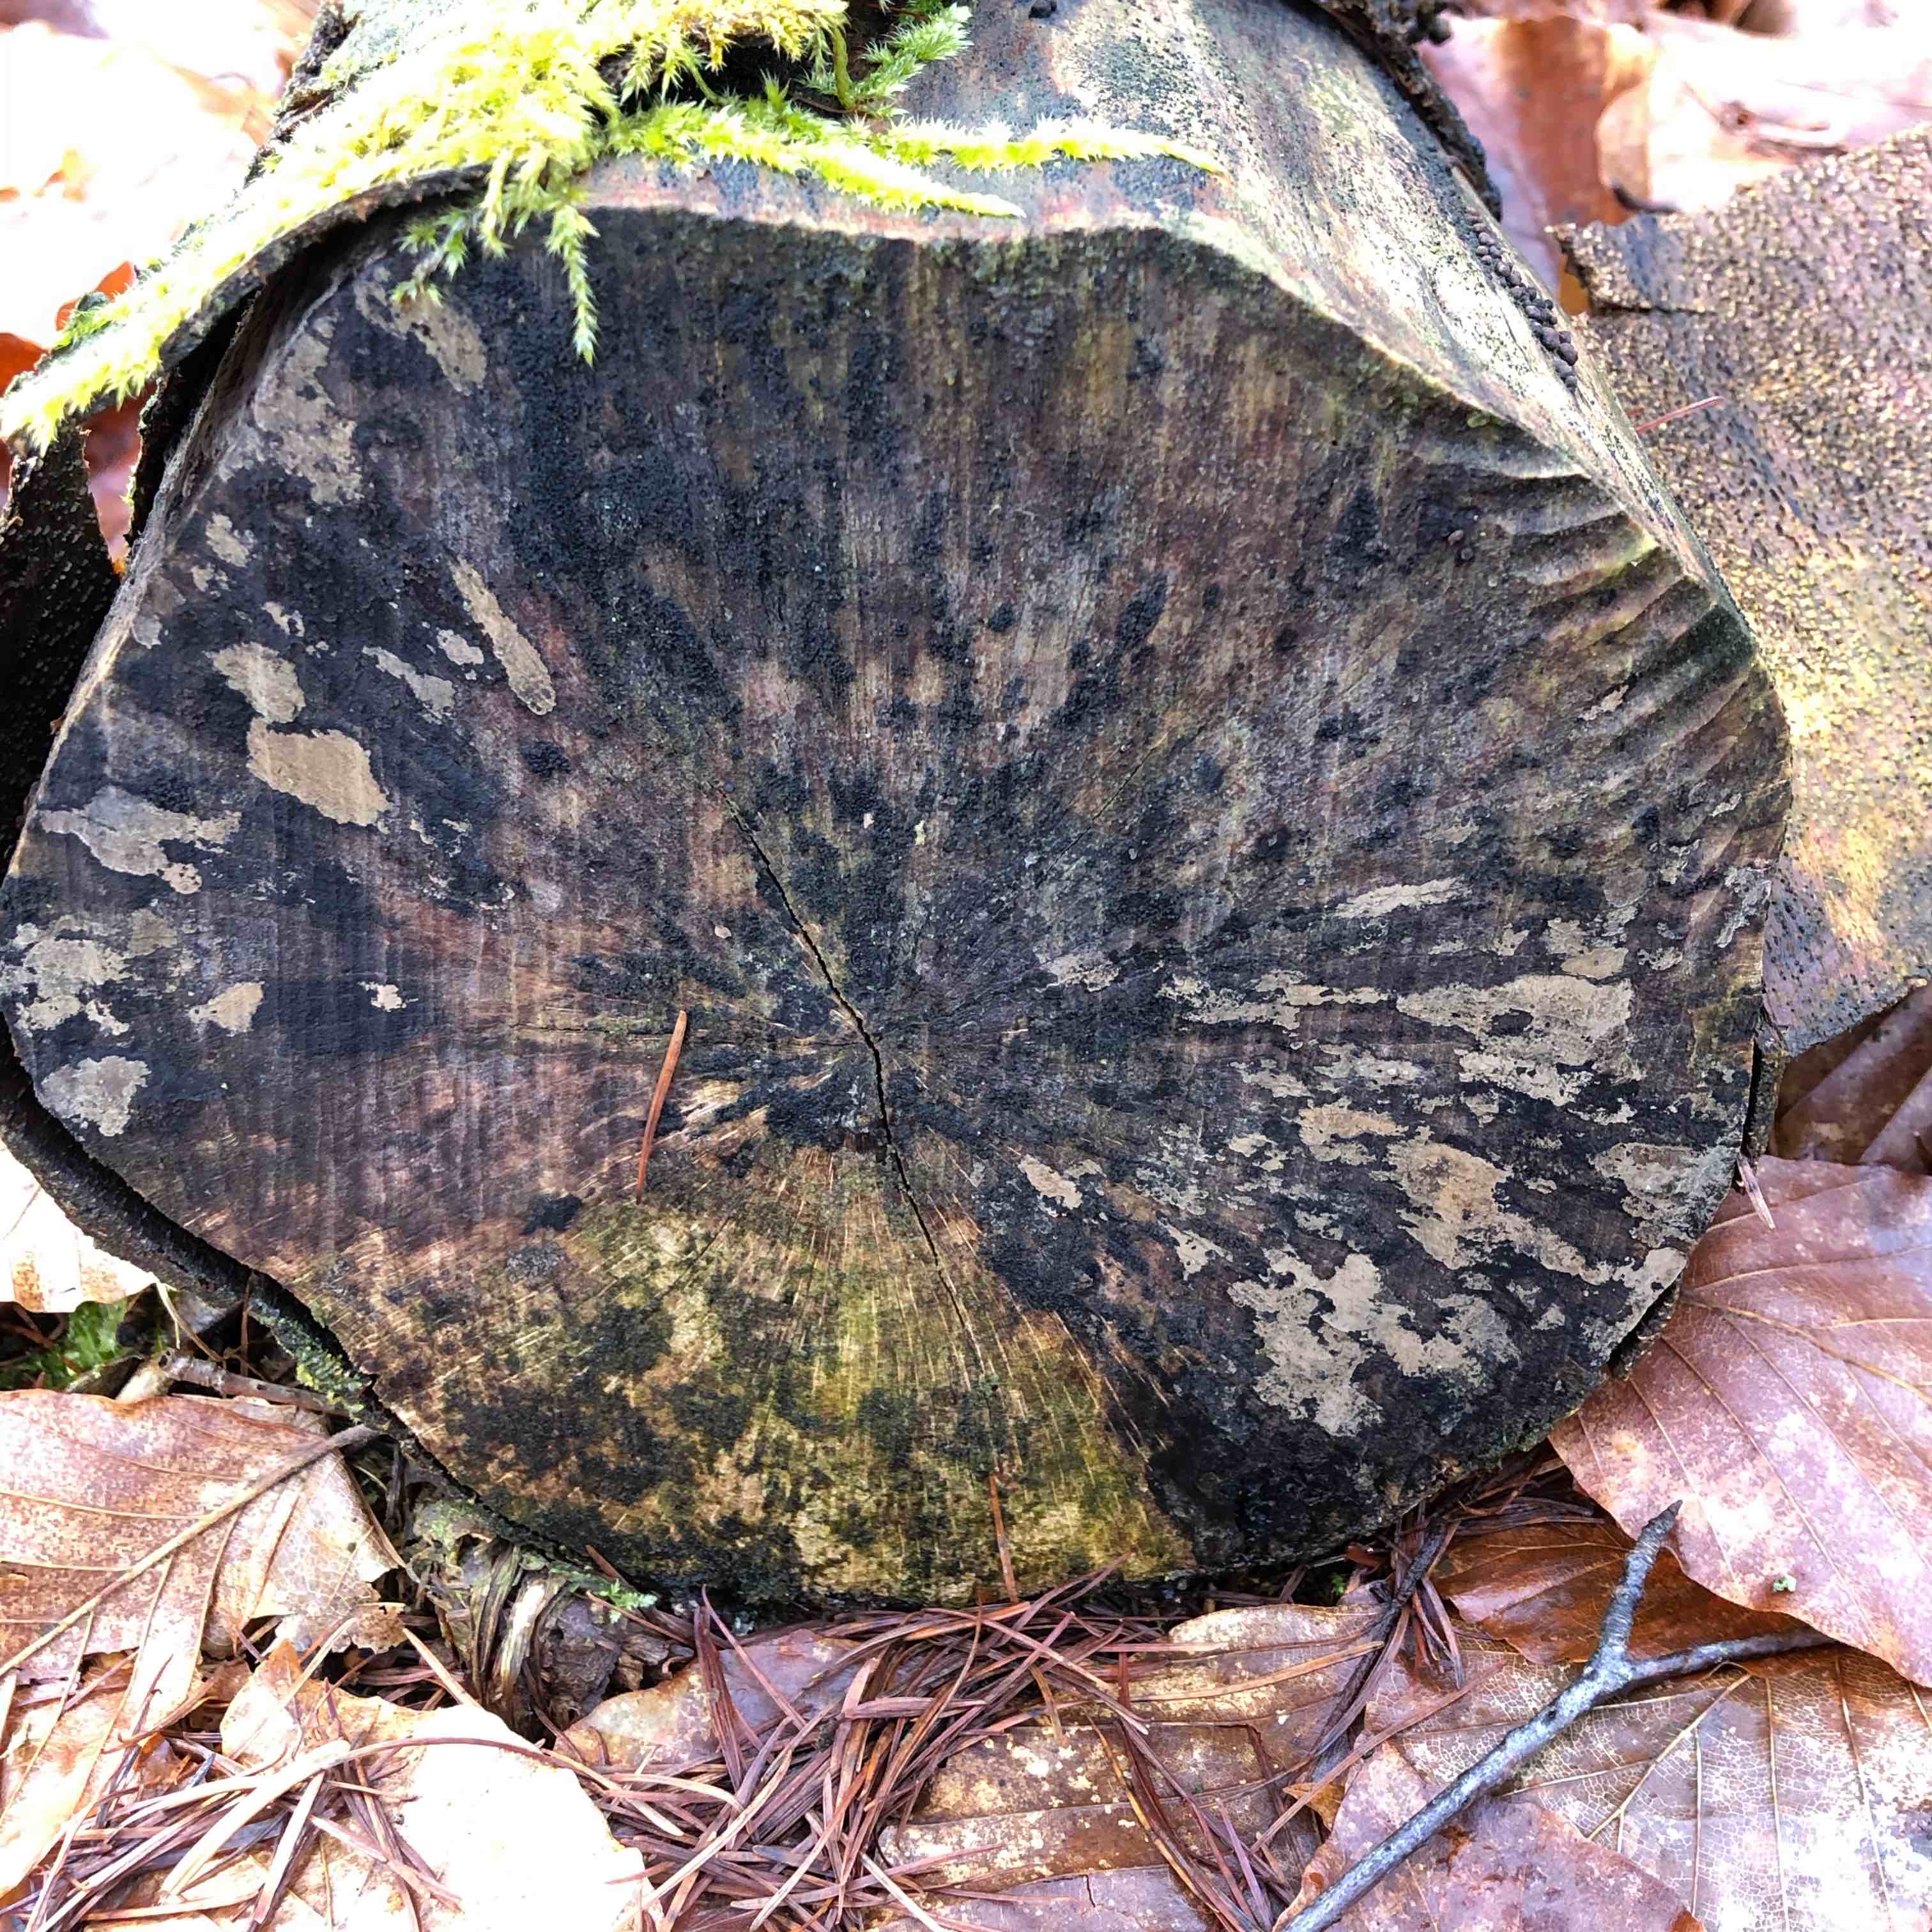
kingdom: Fungi
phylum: Ascomycota
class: Leotiomycetes
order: Helotiales
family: Helotiaceae
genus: Bispora
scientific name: Bispora pallescens
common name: måtte-snitskive
